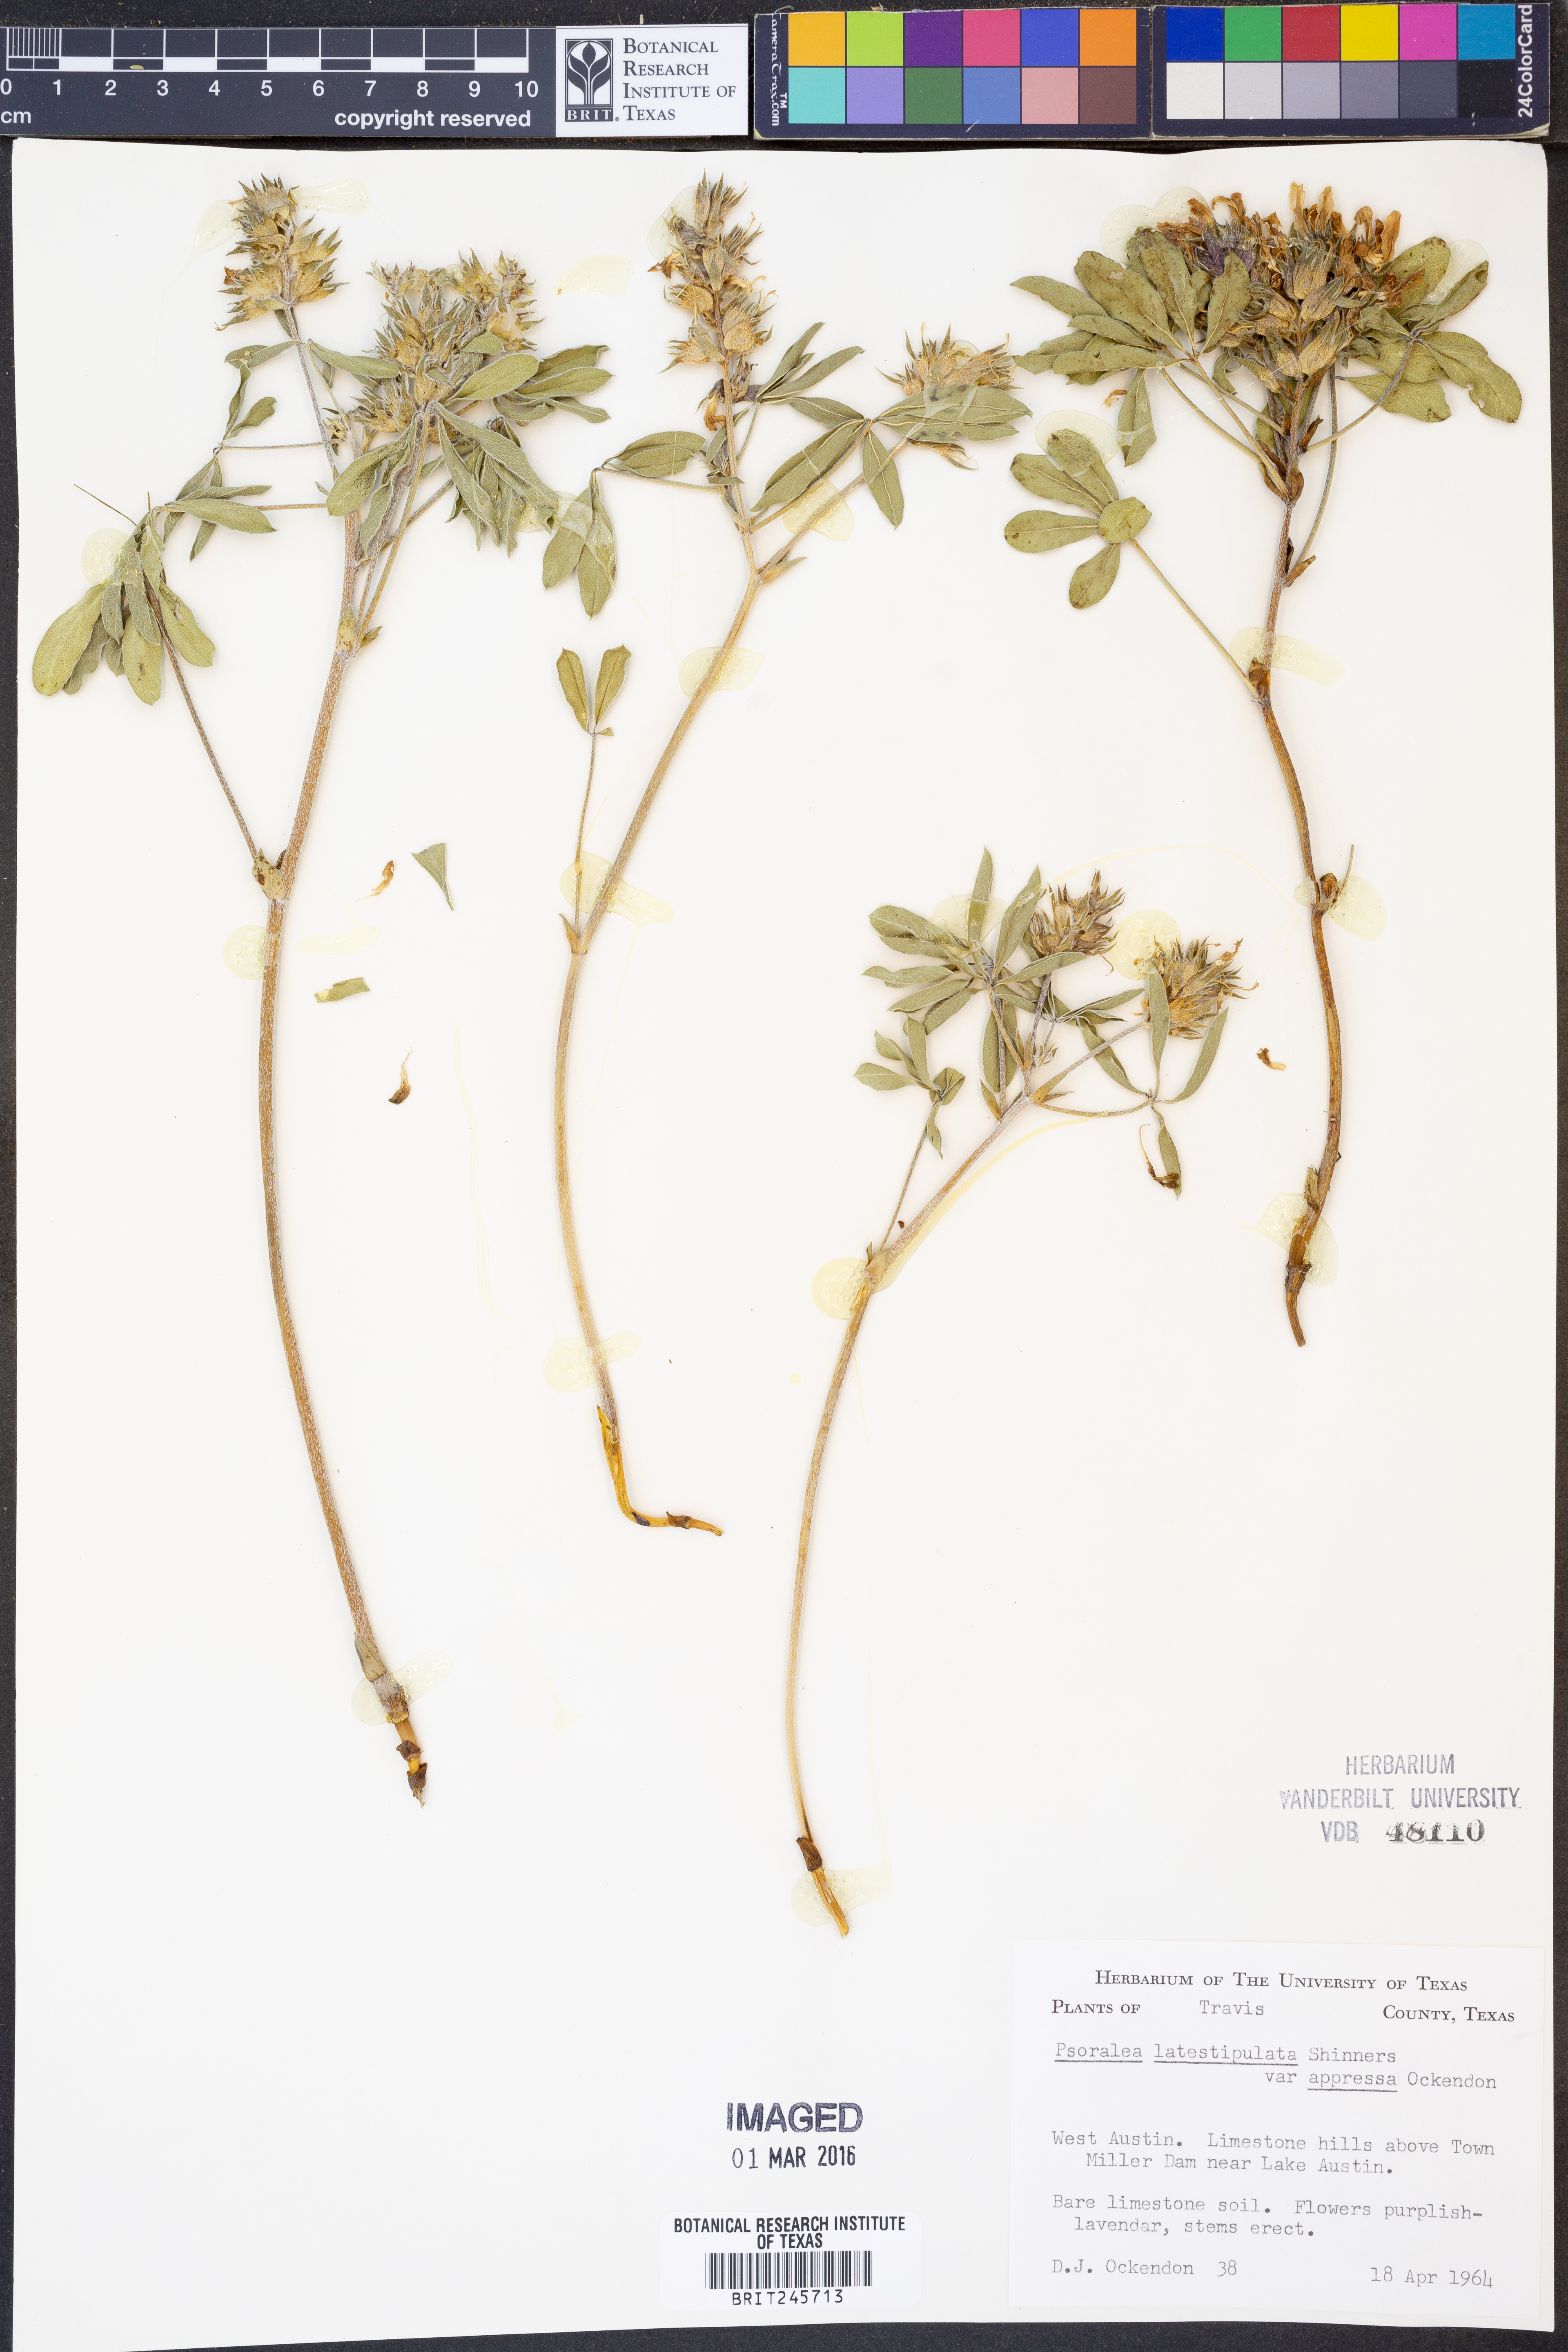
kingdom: Plantae
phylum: Tracheophyta
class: Magnoliopsida
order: Fabales
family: Fabaceae
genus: Pediomelum
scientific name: Pediomelum latestipulatum
